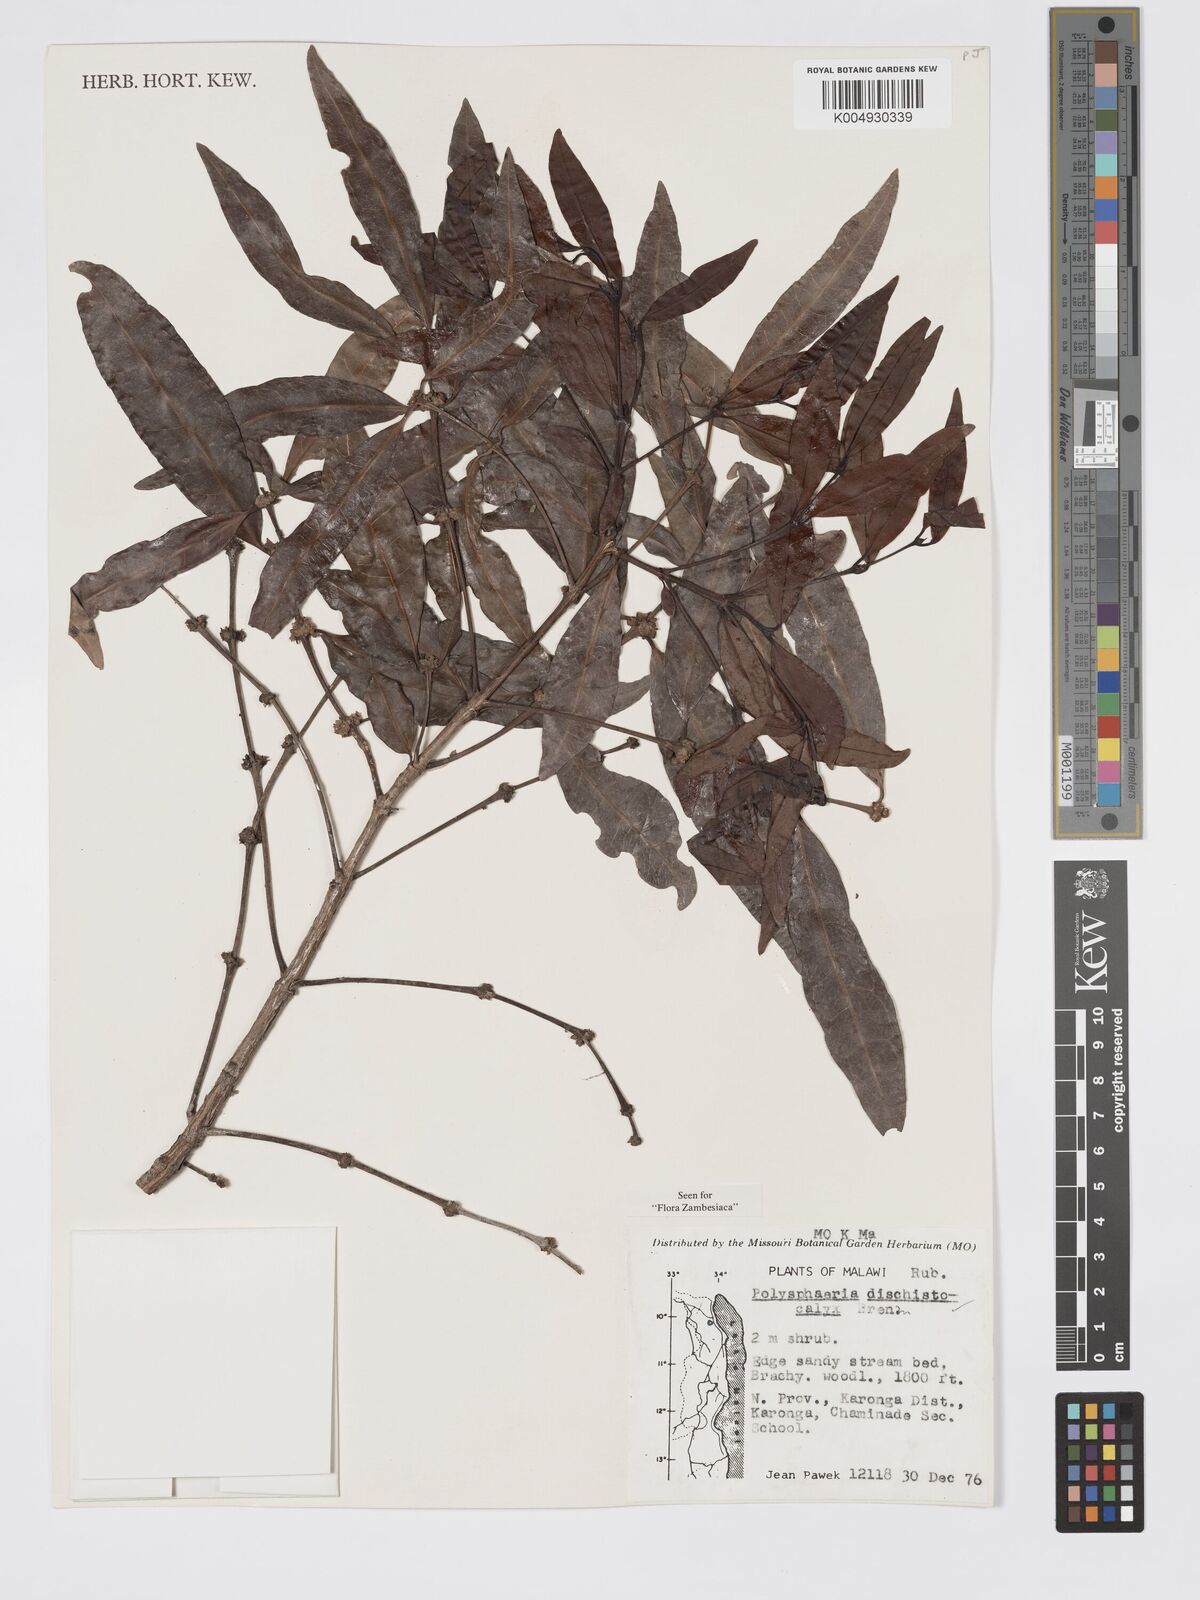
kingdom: Plantae
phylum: Tracheophyta
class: Magnoliopsida
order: Gentianales
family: Rubiaceae
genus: Polysphaeria
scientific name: Polysphaeria dischistocalyx
